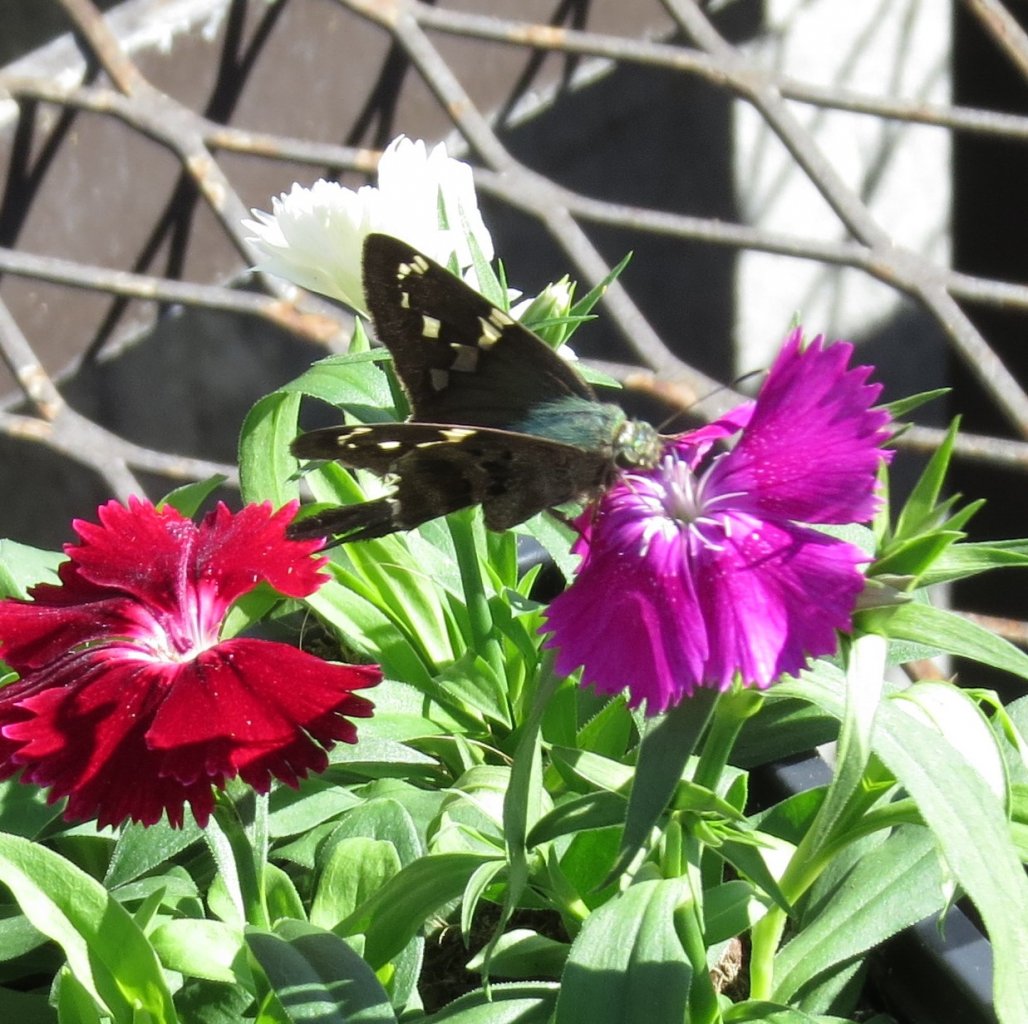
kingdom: Animalia
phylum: Arthropoda
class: Insecta
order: Lepidoptera
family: Hesperiidae
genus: Urbanus
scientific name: Urbanus proteus
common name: Long-tailed Skipper
